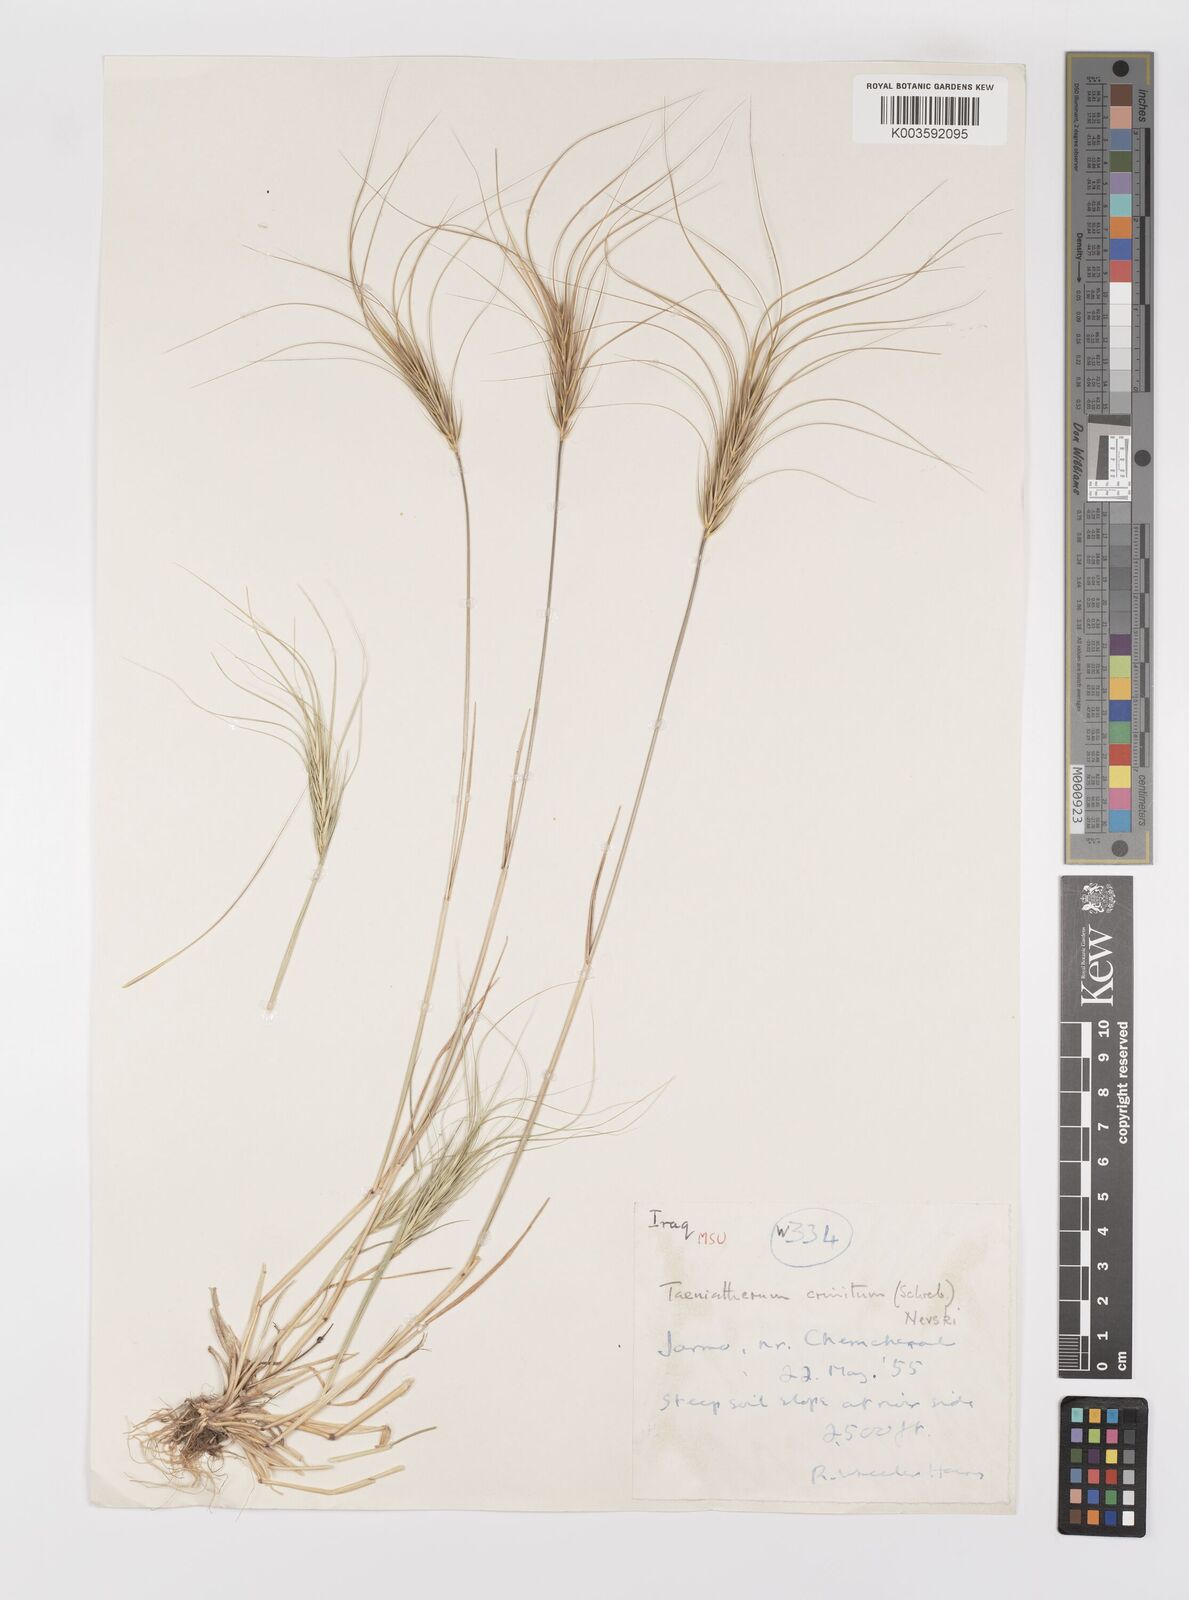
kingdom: Plantae
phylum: Tracheophyta
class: Liliopsida
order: Poales
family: Poaceae
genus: Taeniatherum
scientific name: Taeniatherum caput-medusae
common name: Medusahead
